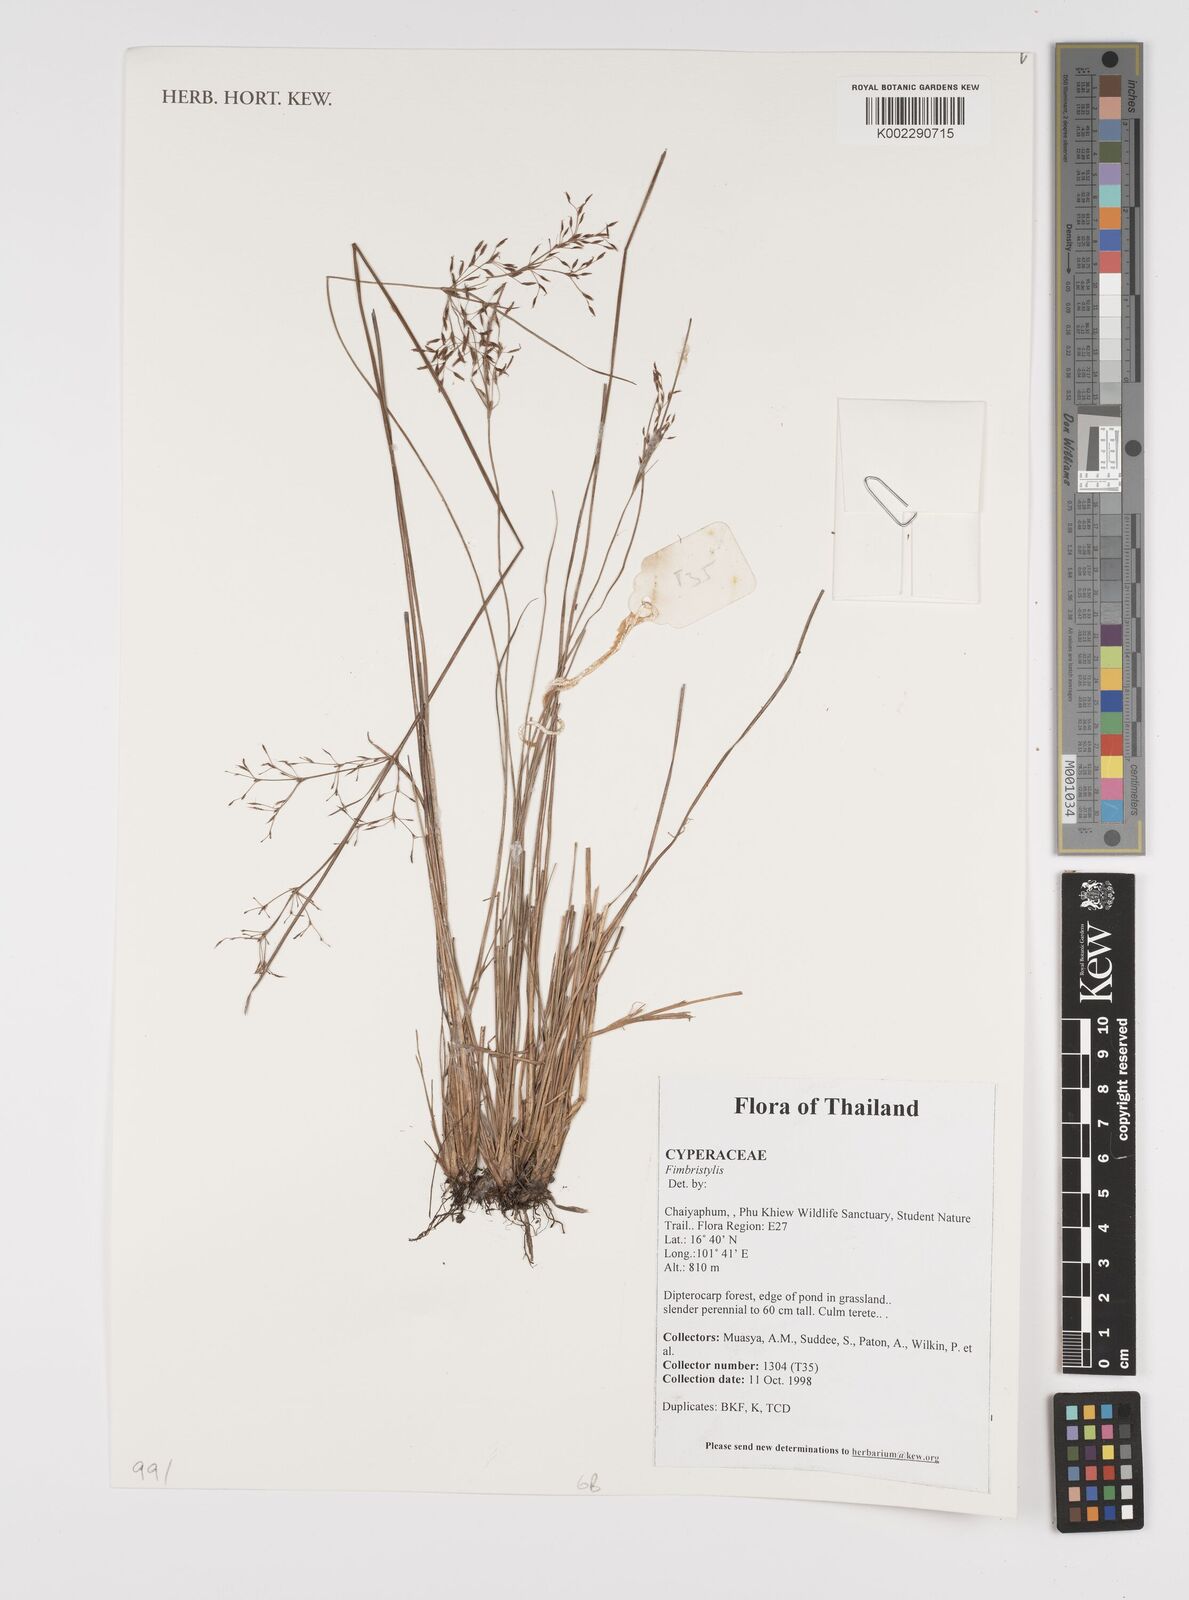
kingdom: Plantae
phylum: Tracheophyta
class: Liliopsida
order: Poales
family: Cyperaceae
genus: Fimbristylis
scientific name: Fimbristylis
